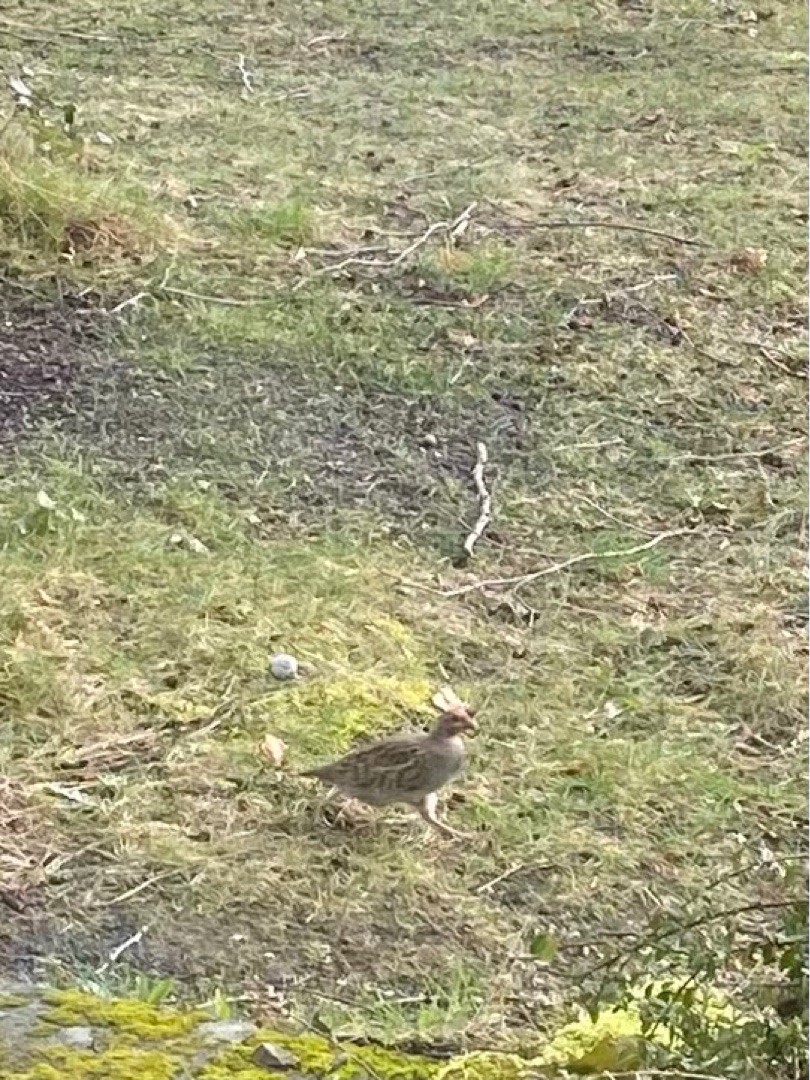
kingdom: Animalia
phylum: Chordata
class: Aves
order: Galliformes
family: Phasianidae
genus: Perdix
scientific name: Perdix perdix
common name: Agerhøne
